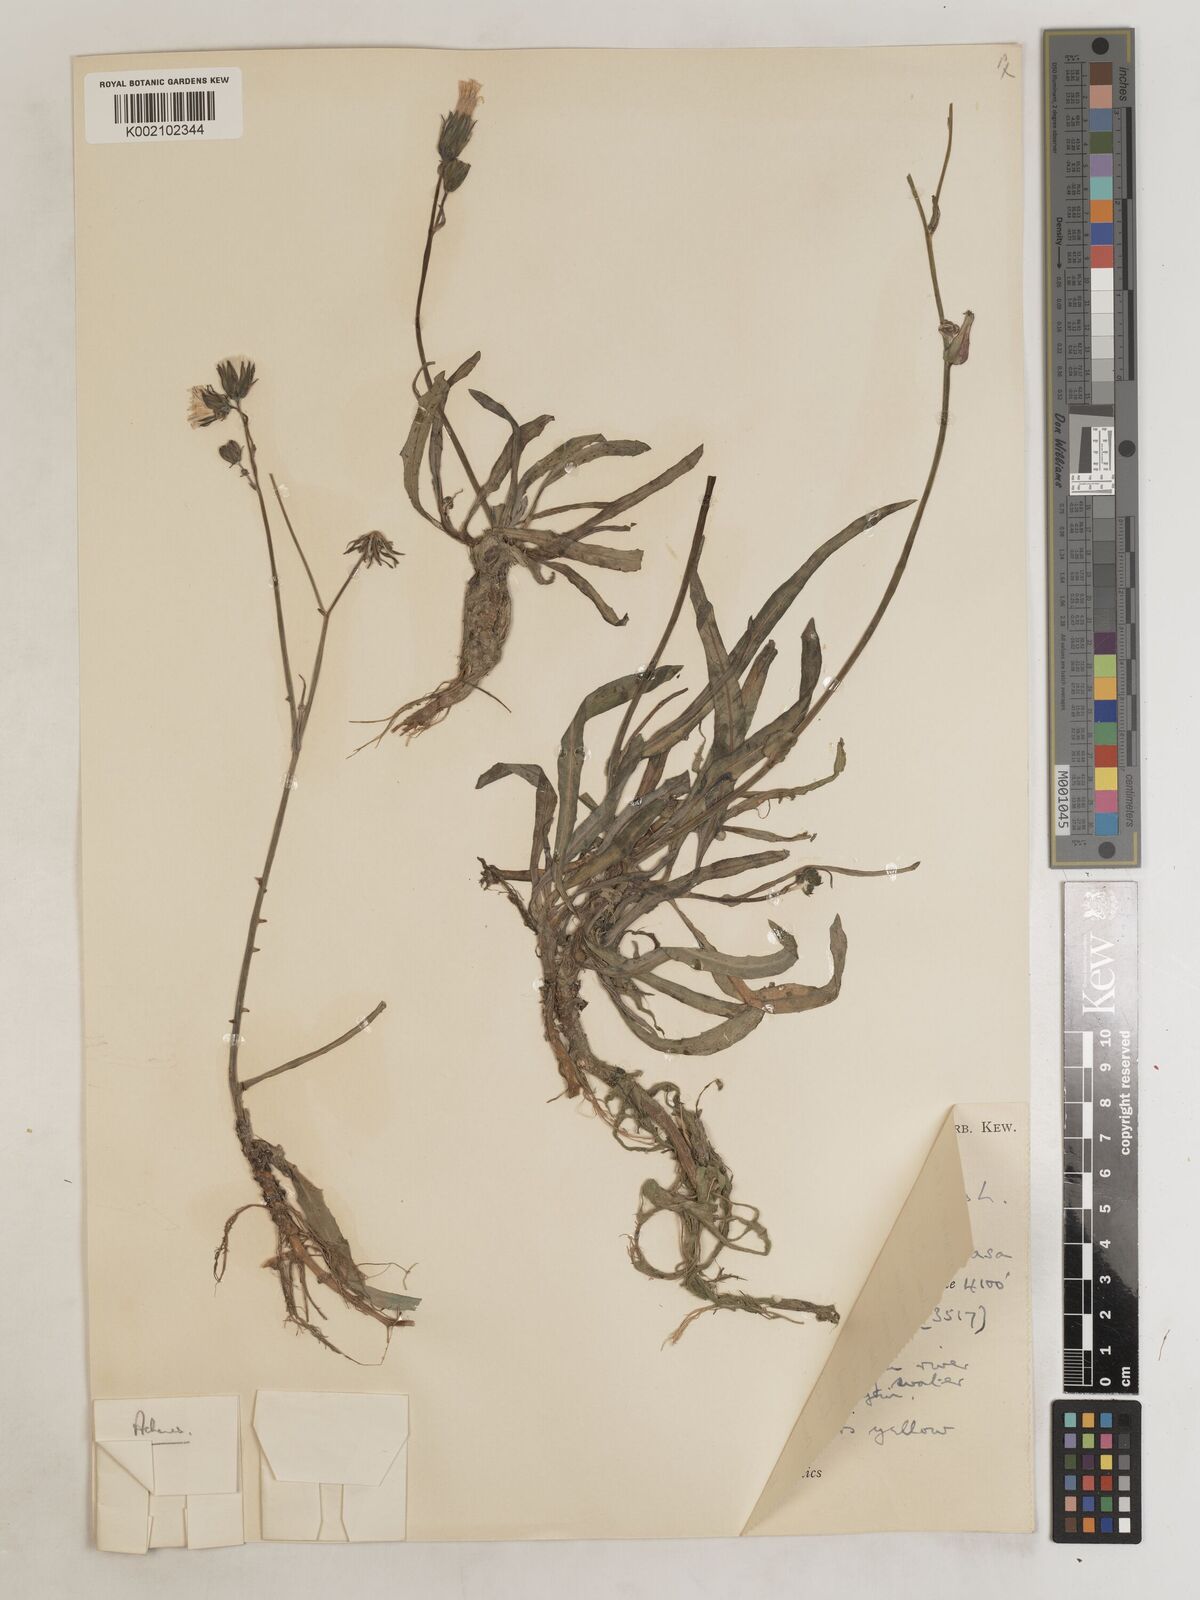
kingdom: Plantae
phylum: Tracheophyta
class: Magnoliopsida
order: Asterales
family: Asteraceae
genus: Sonchus
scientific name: Sonchus maritimus
